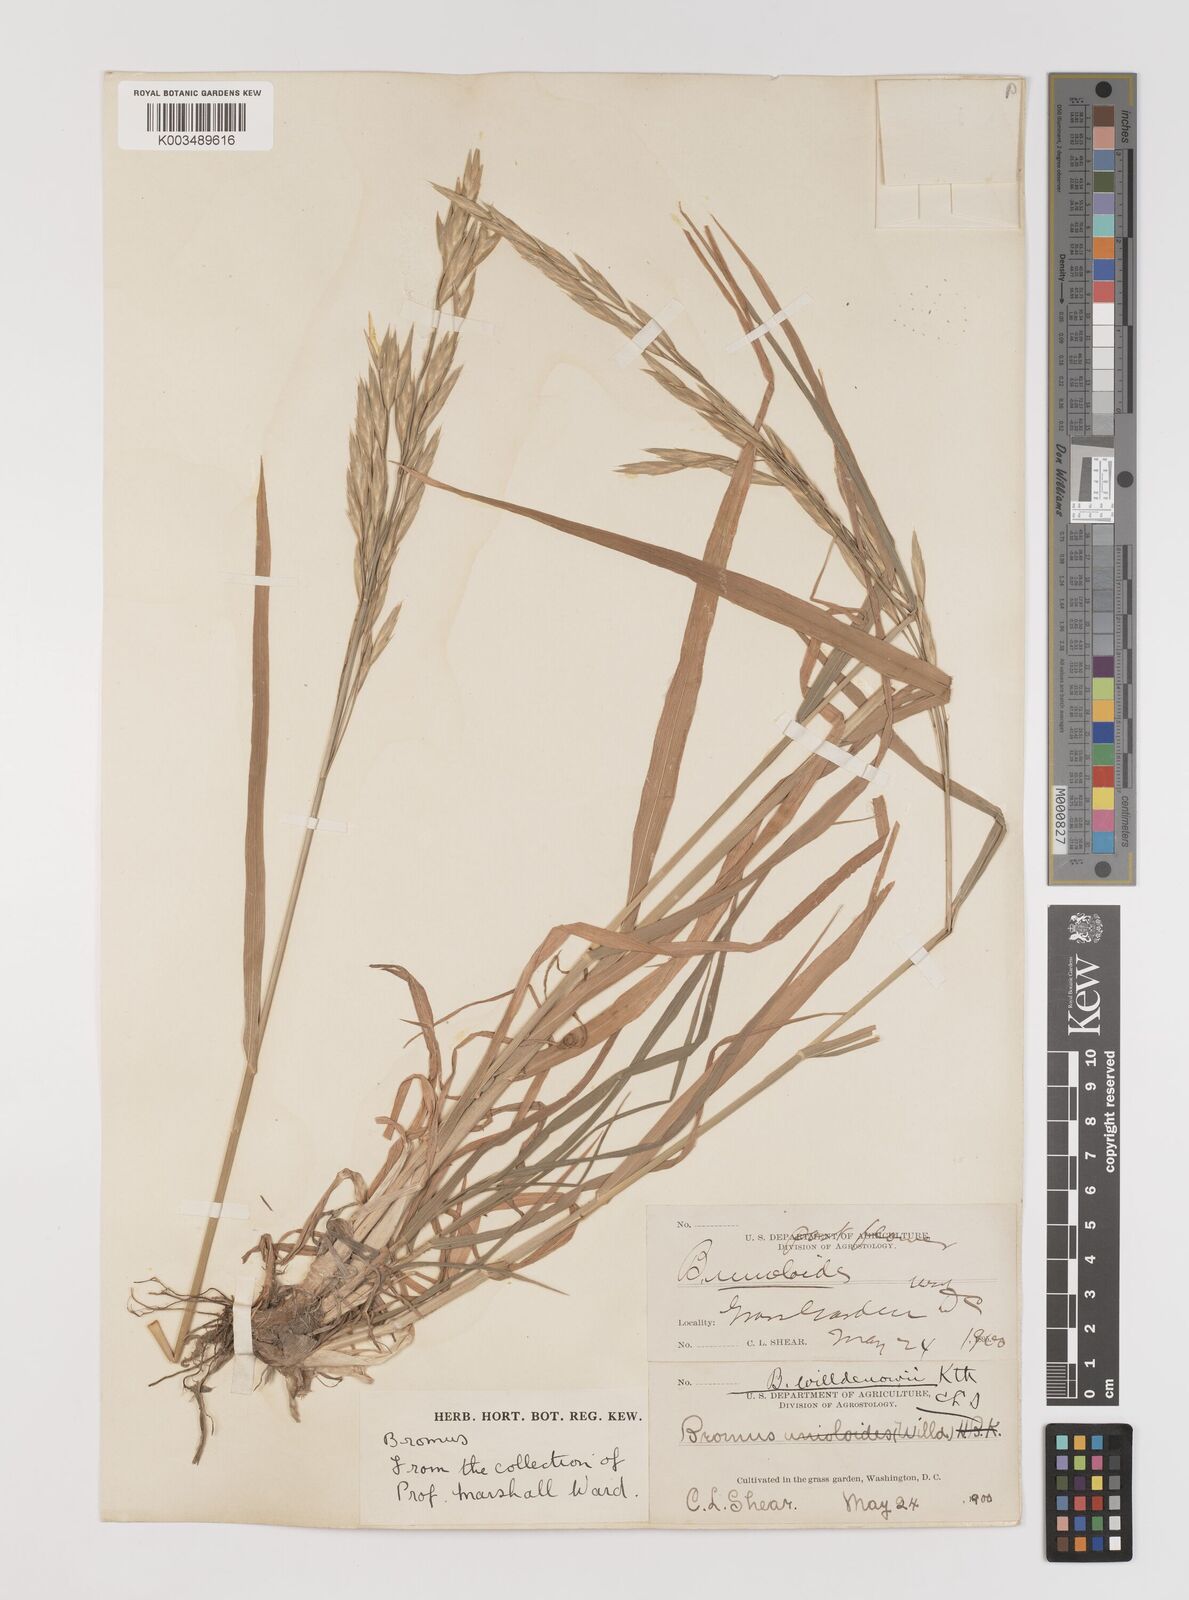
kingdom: Plantae
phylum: Tracheophyta
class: Liliopsida
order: Poales
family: Poaceae
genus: Bromus
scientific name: Bromus catharticus
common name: Rescuegrass
